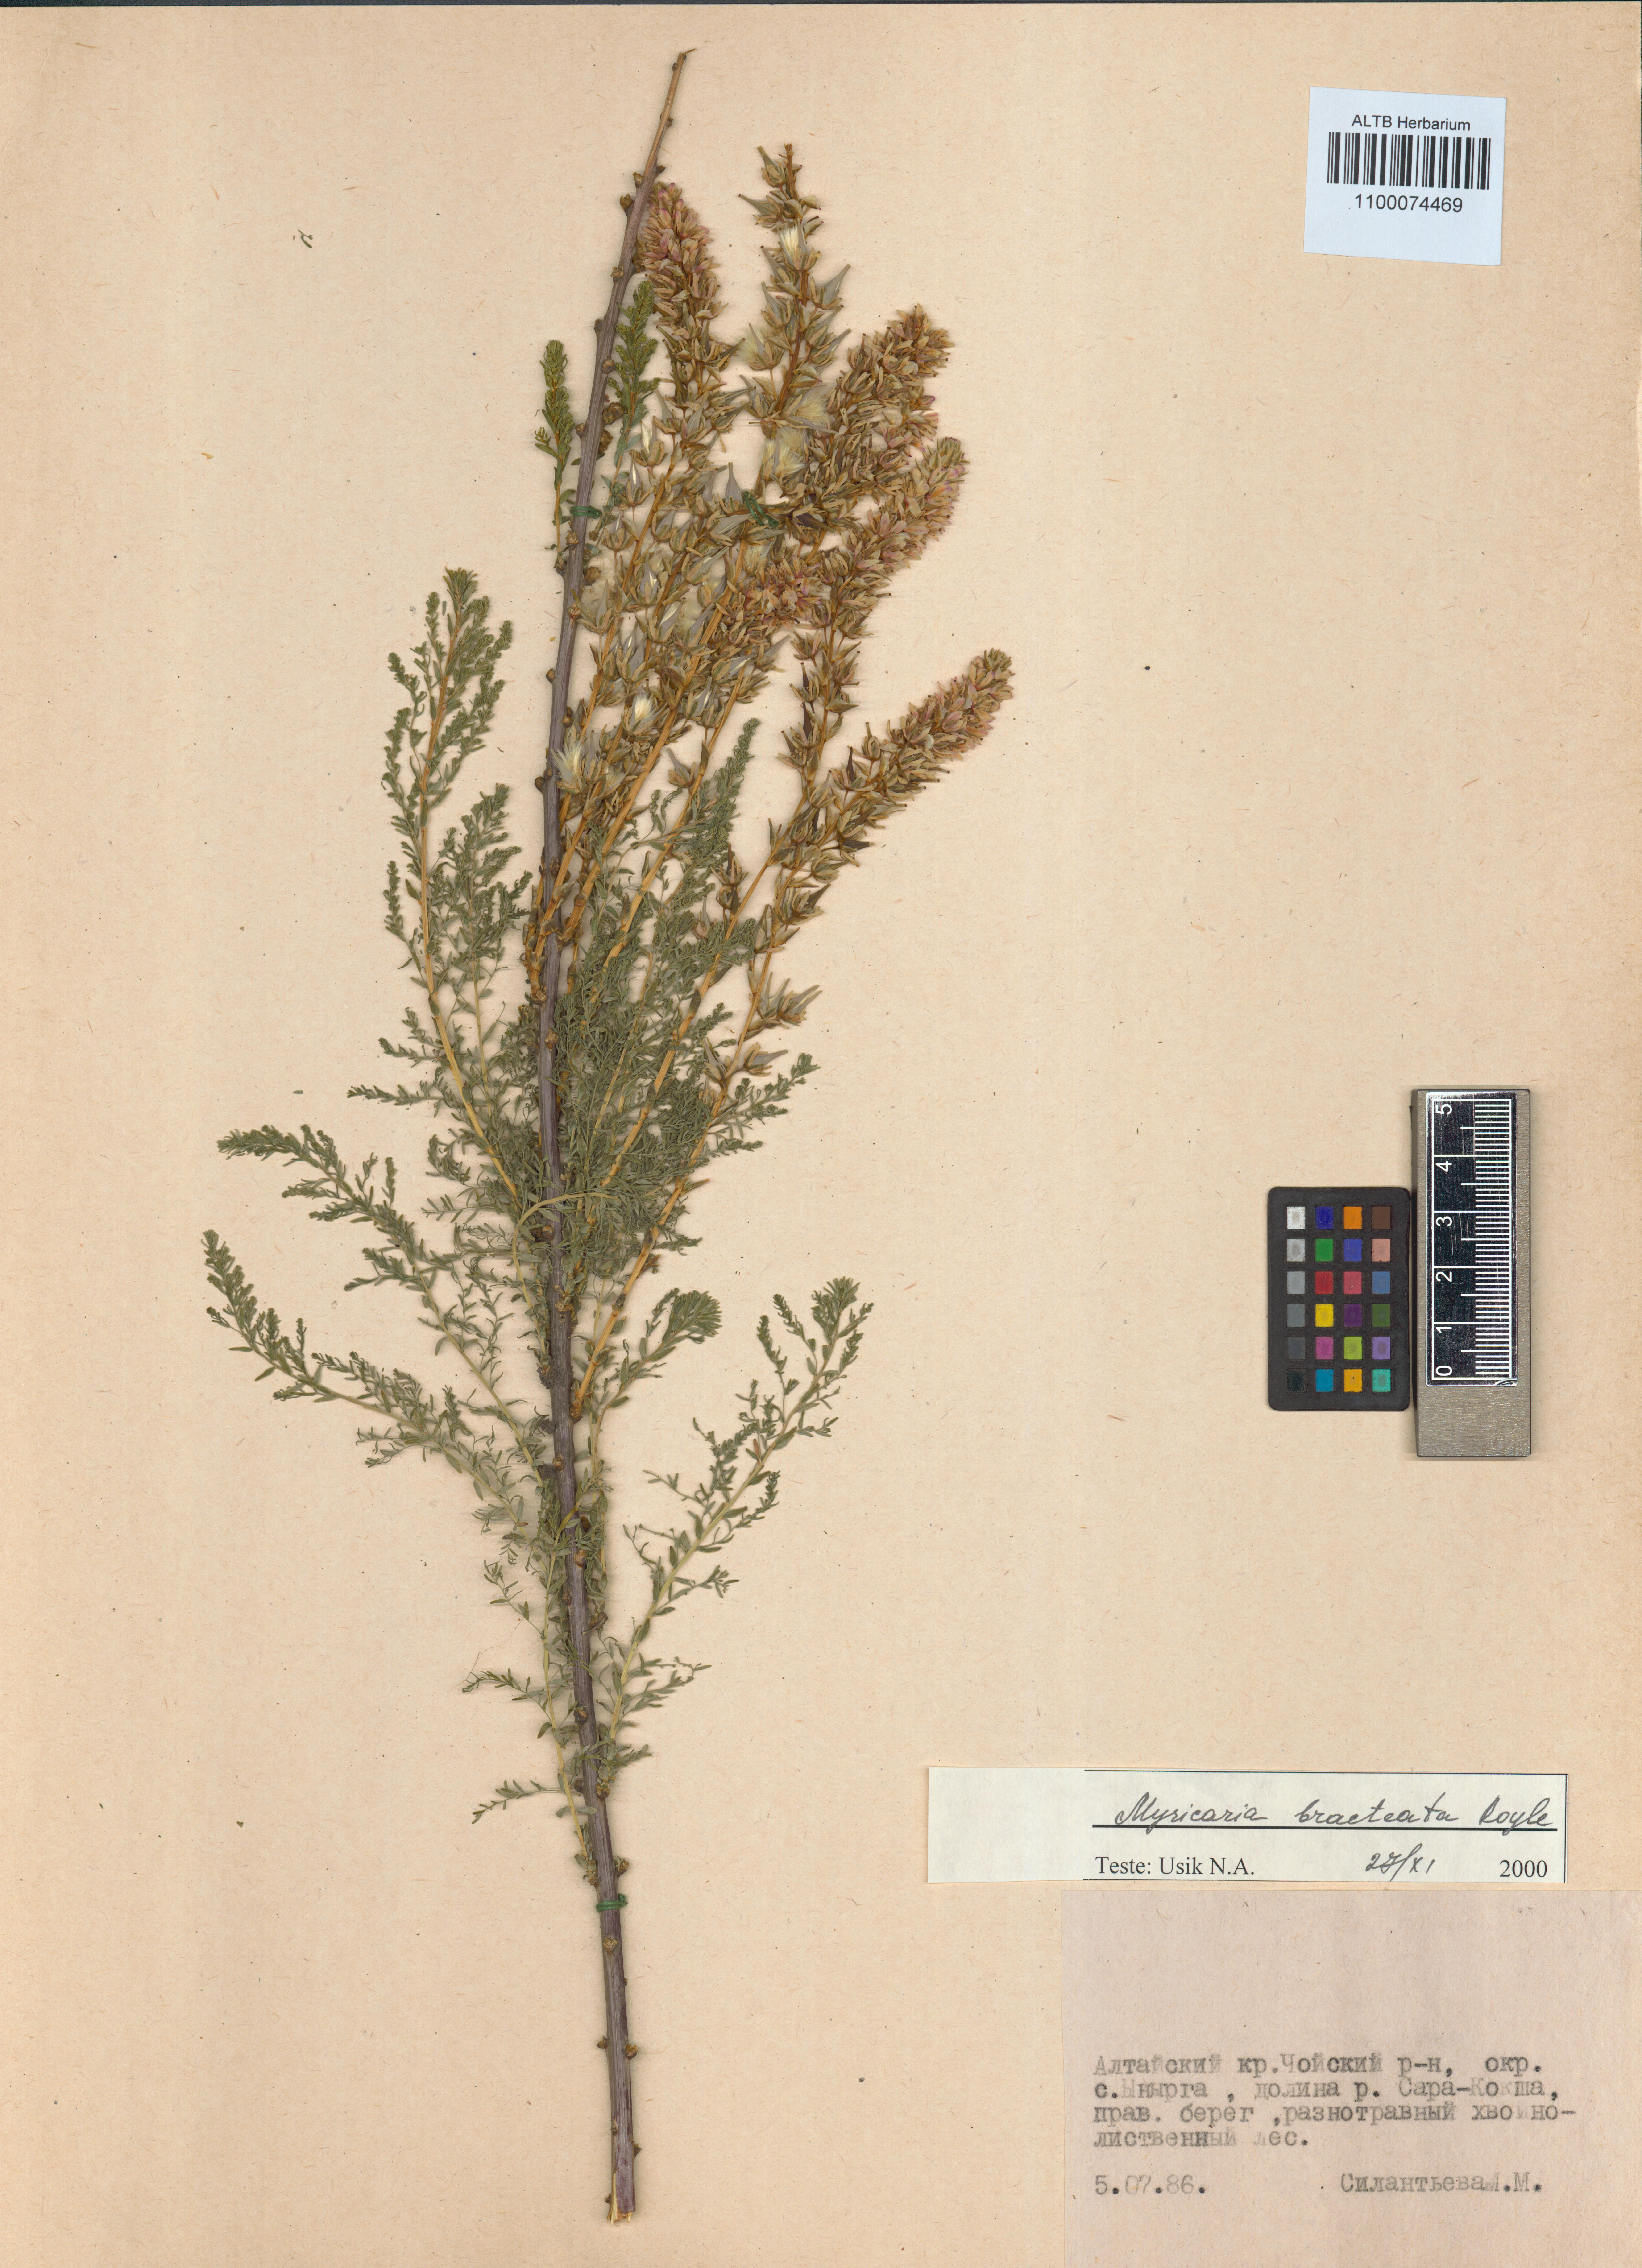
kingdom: Plantae
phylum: Tracheophyta
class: Magnoliopsida
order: Caryophyllales
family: Tamaricaceae
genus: Myricaria
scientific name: Myricaria bracteata
